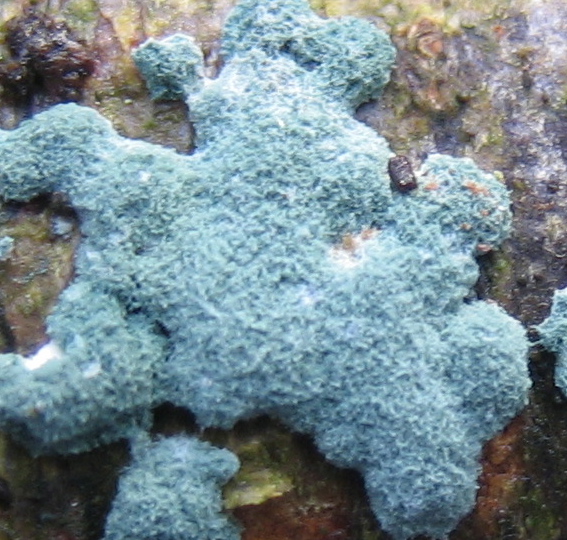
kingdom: Fungi
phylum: Ascomycota
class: Sordariomycetes
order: Hypocreales
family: Hypocreaceae
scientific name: Hypocreaceae
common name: kødkernefamilien
